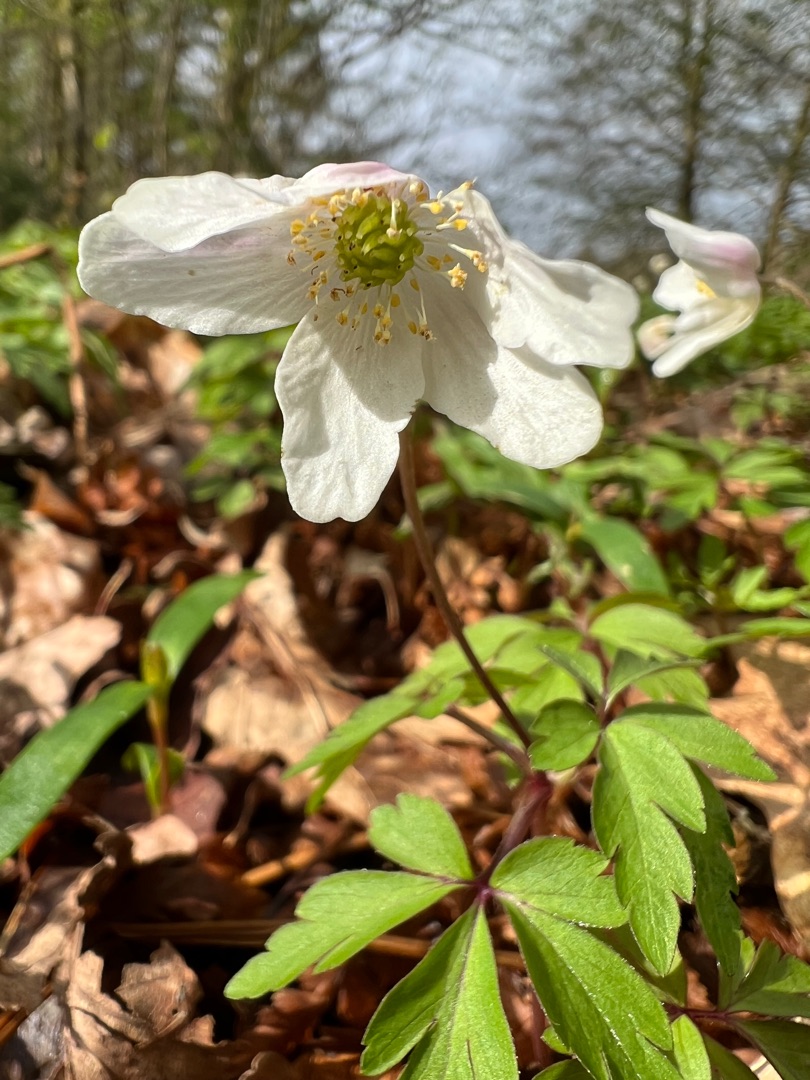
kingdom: Plantae
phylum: Tracheophyta
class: Magnoliopsida
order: Ranunculales
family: Ranunculaceae
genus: Anemone
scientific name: Anemone nemorosa
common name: Hvid anemone
